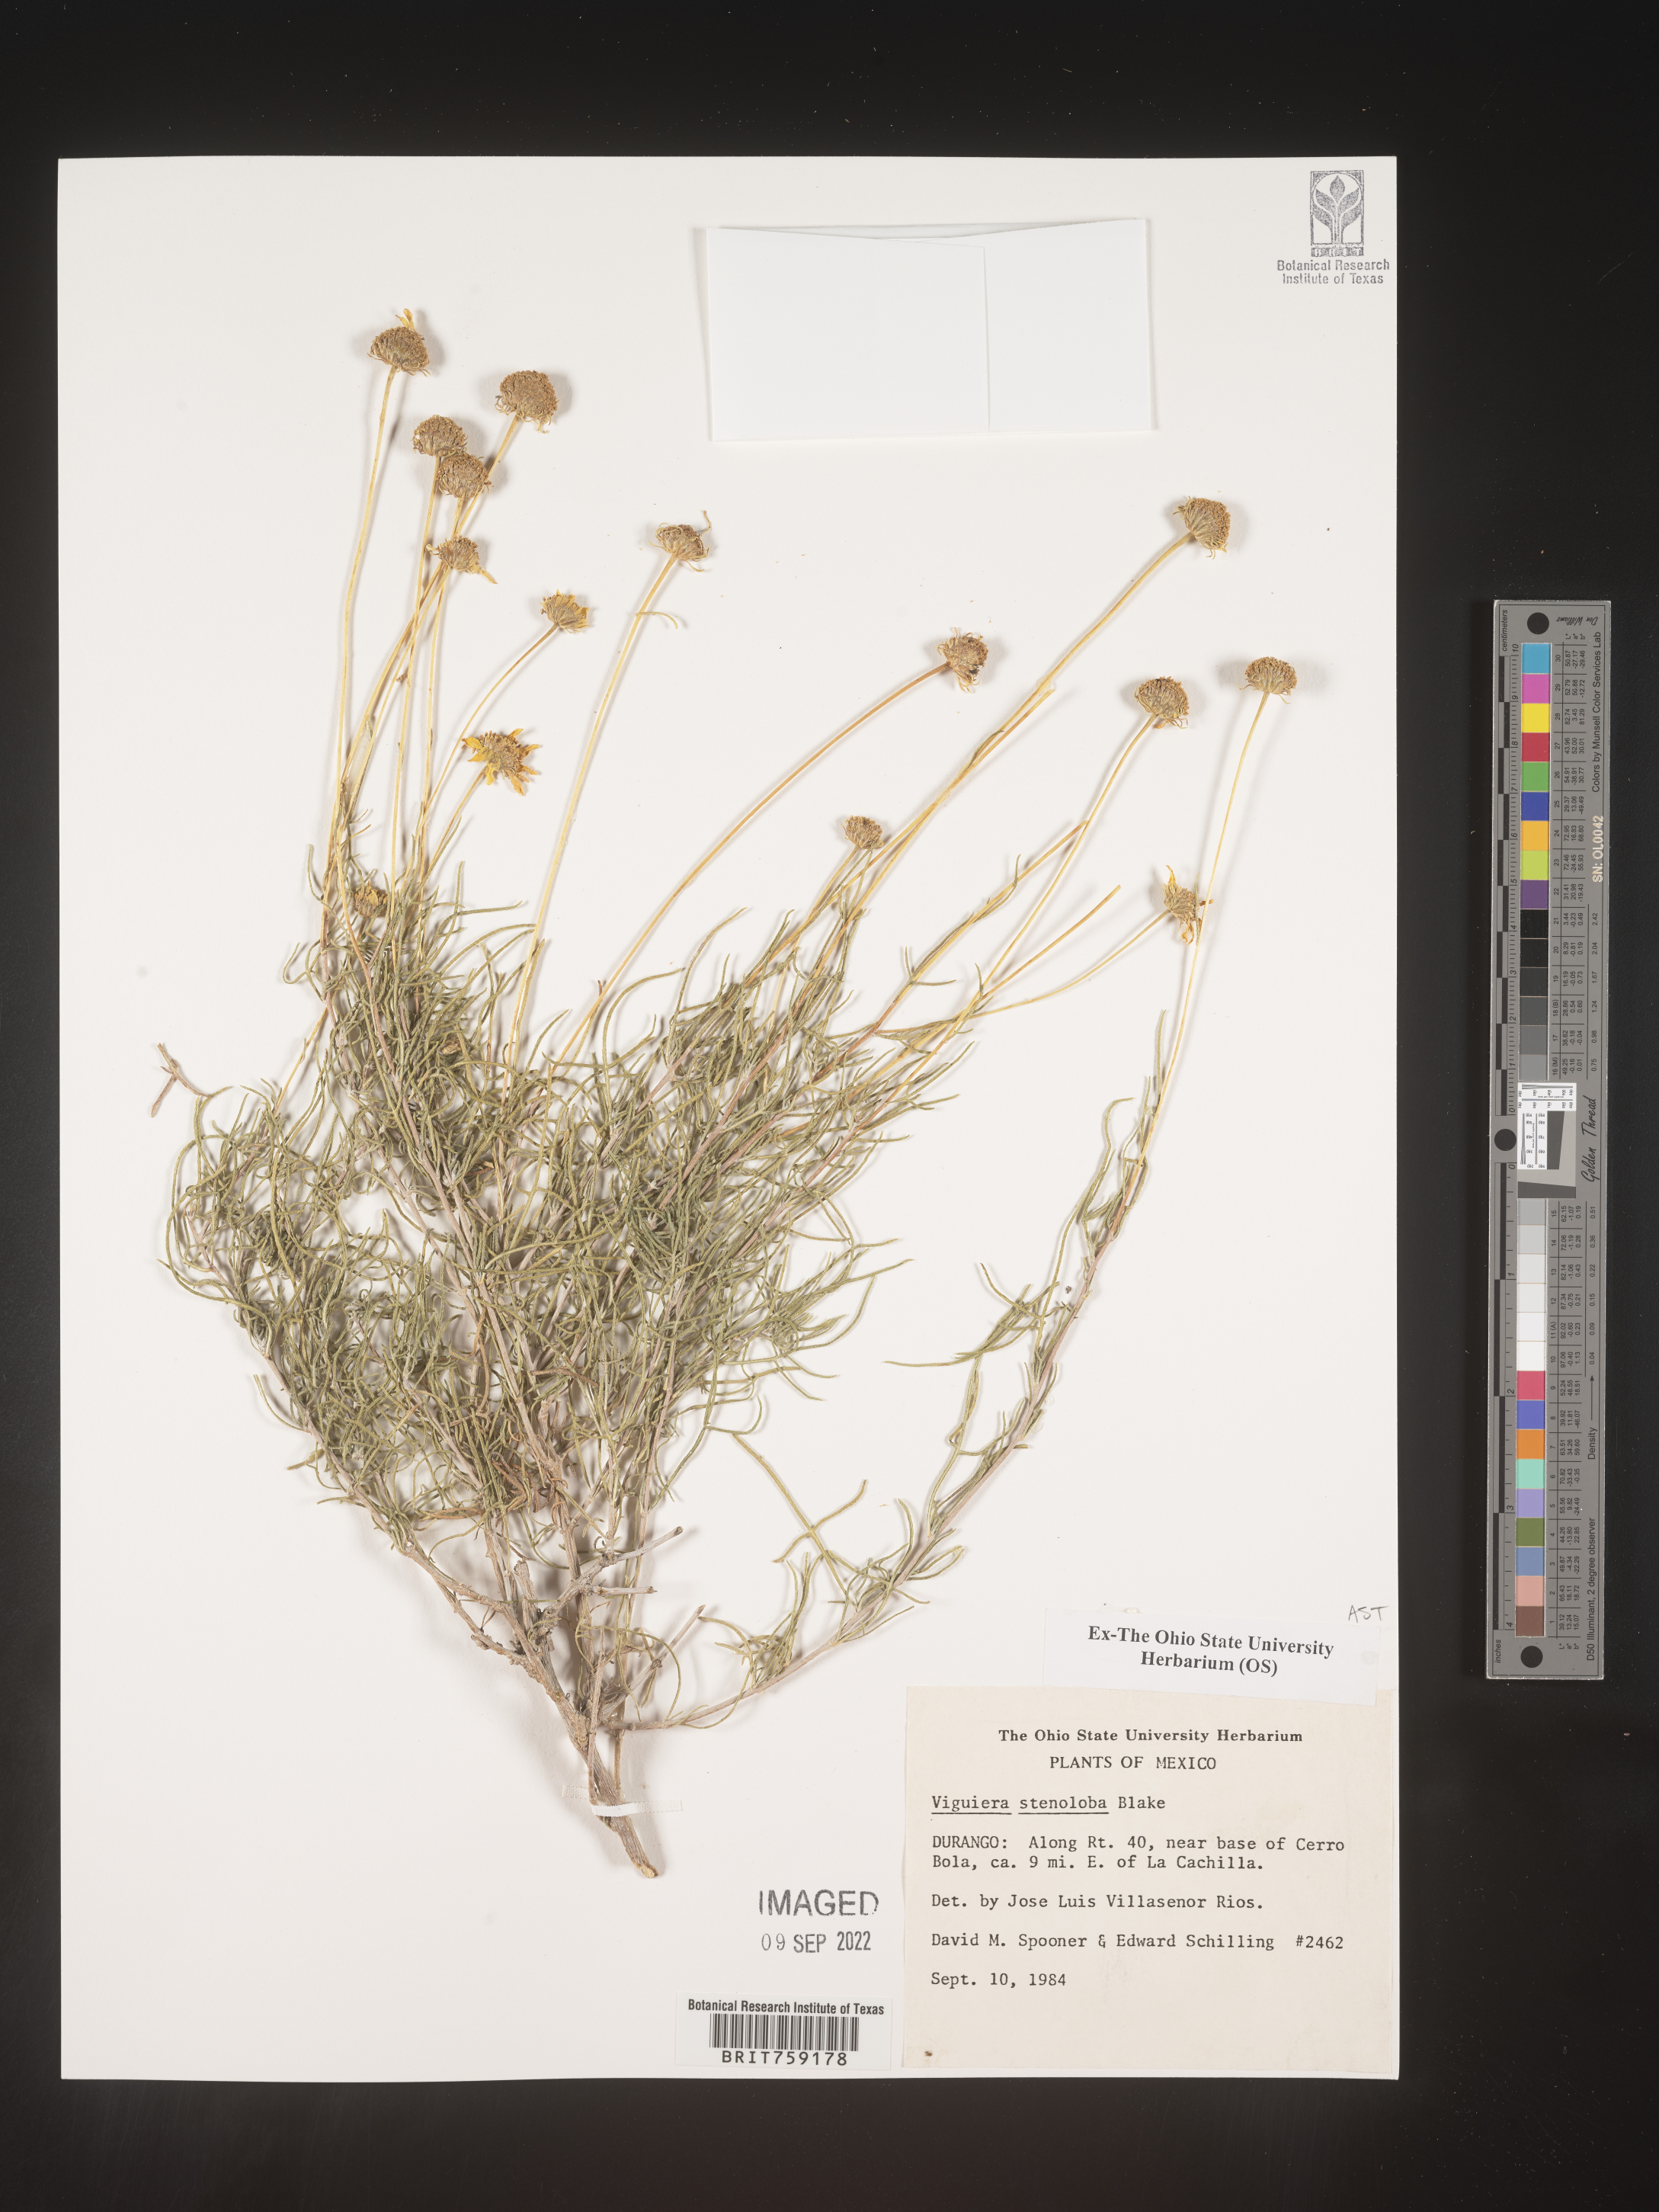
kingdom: Plantae
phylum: Tracheophyta
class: Magnoliopsida
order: Asterales
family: Asteraceae
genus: Viguiera
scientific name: Viguiera
